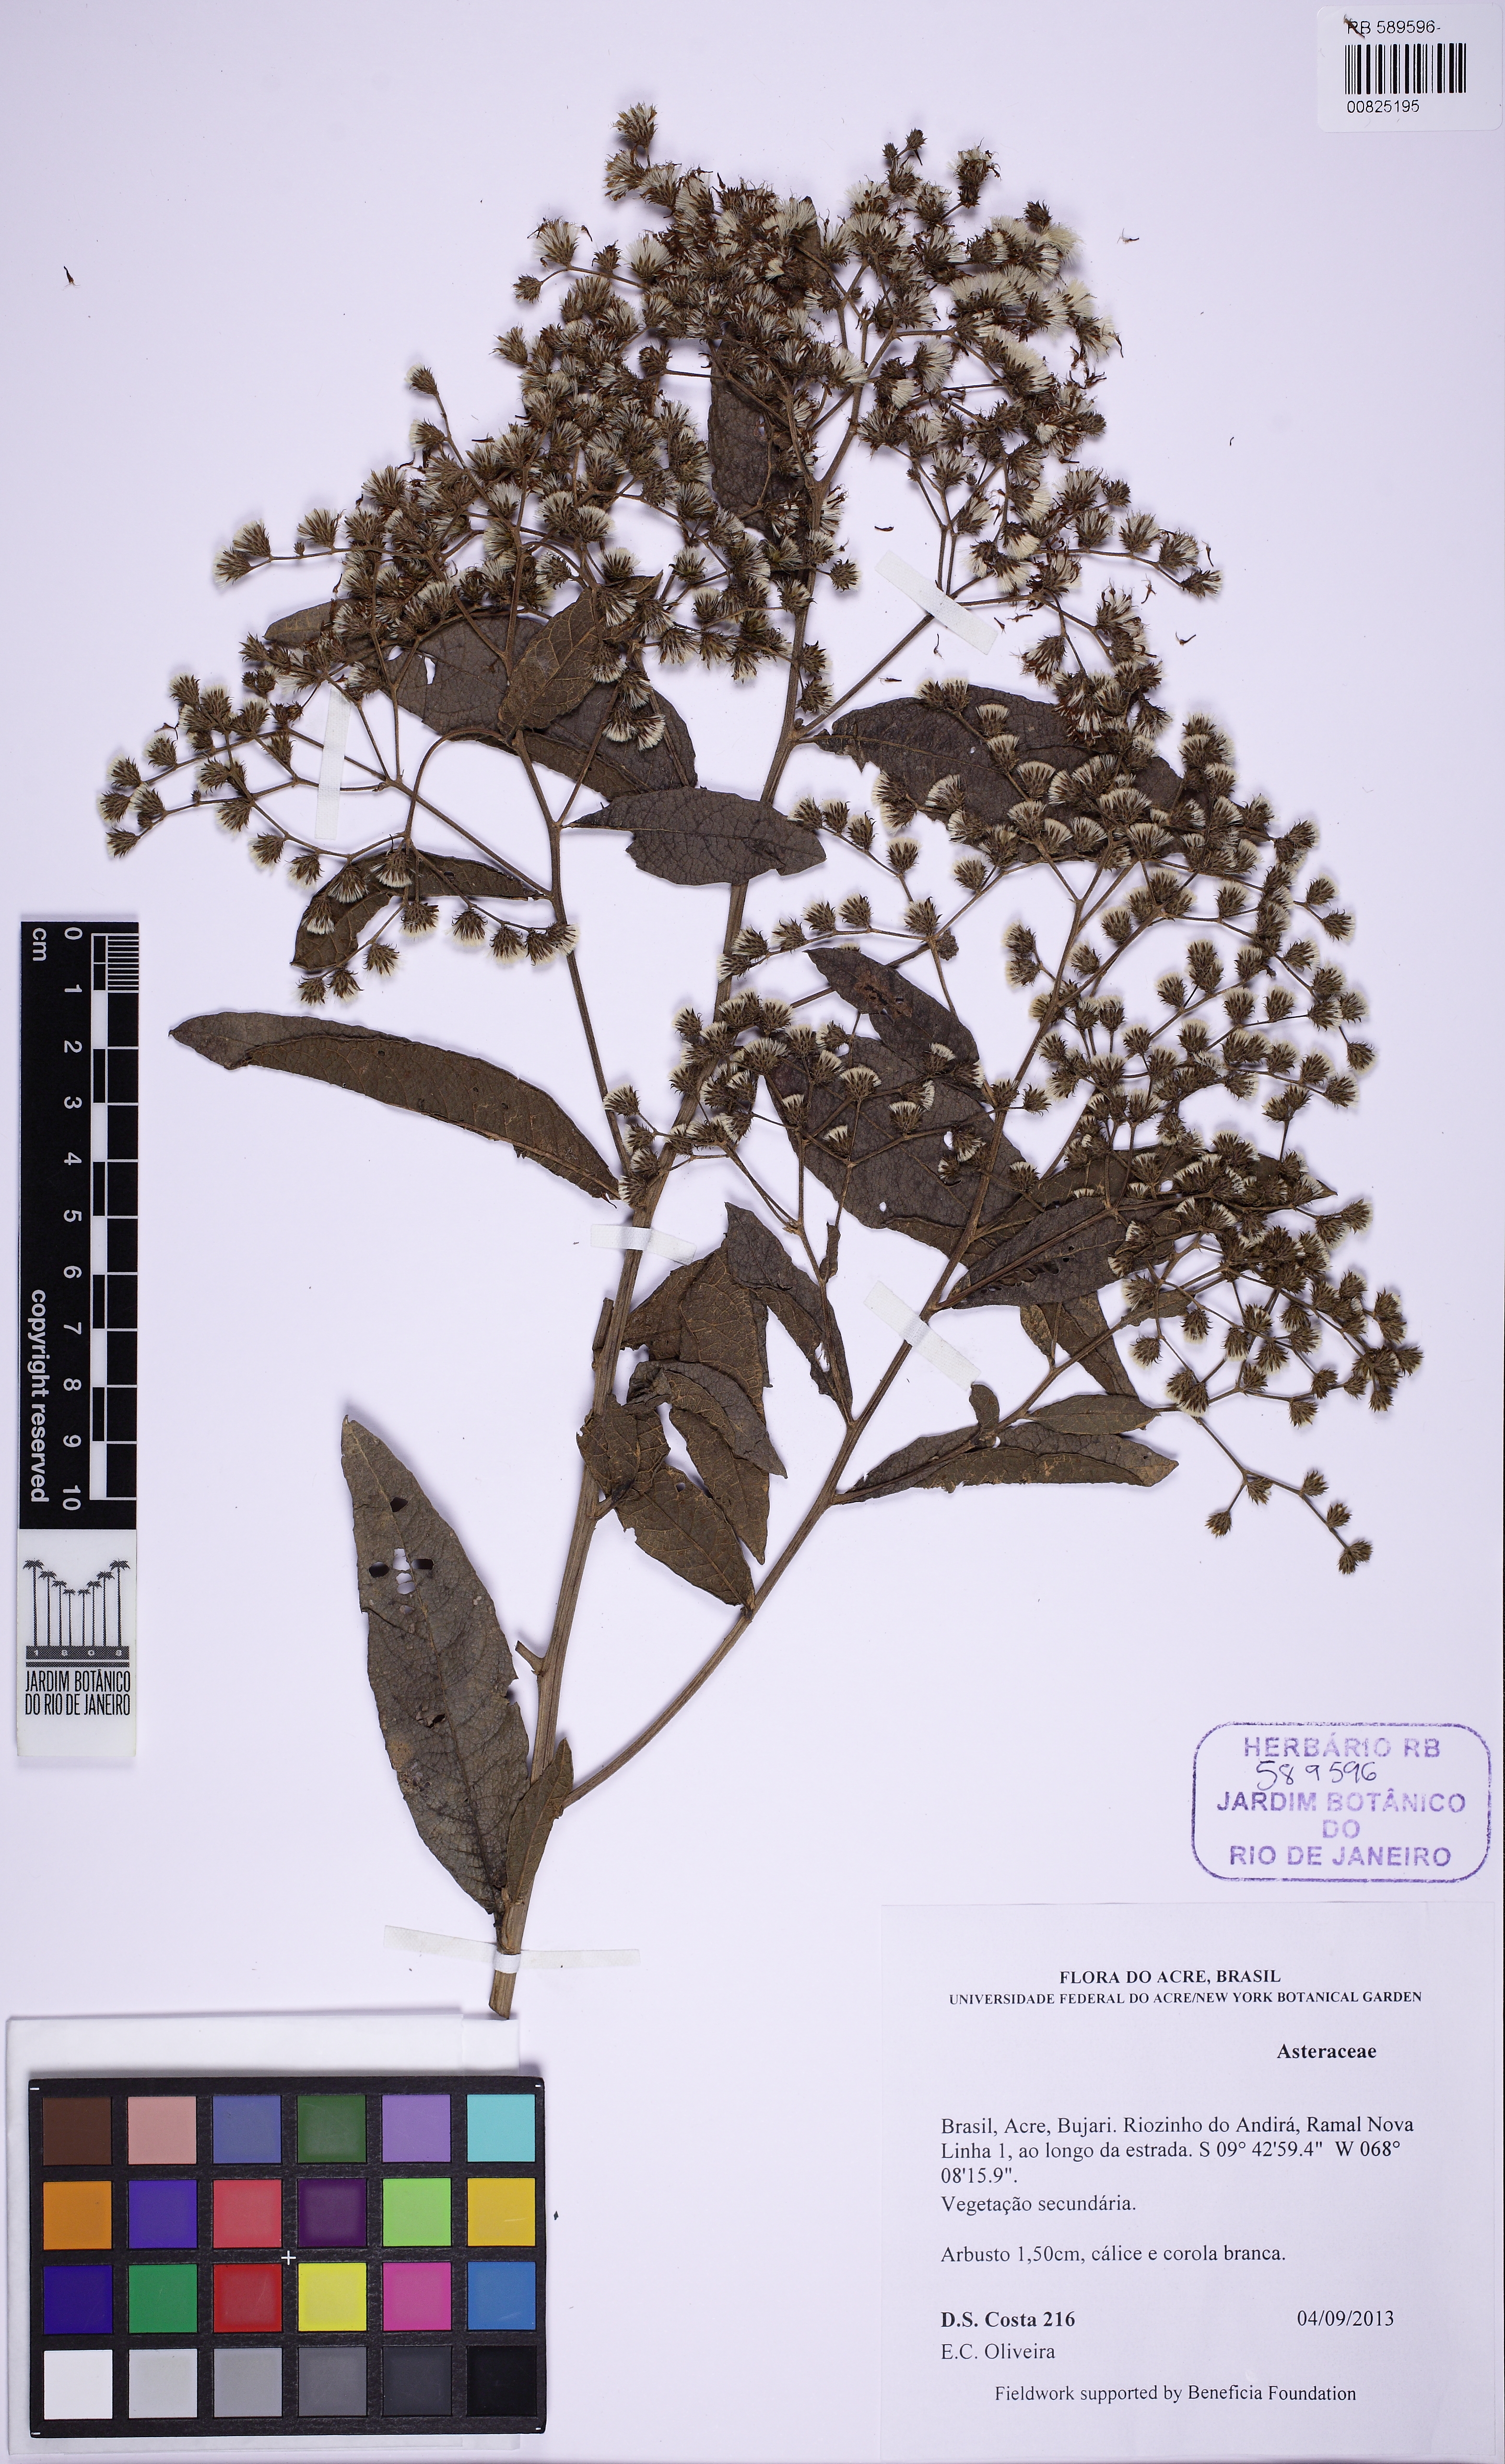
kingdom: Plantae
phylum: Tracheophyta
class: Magnoliopsida
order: Asterales
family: Asteraceae
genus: Vernonanthura
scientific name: Vernonanthura
